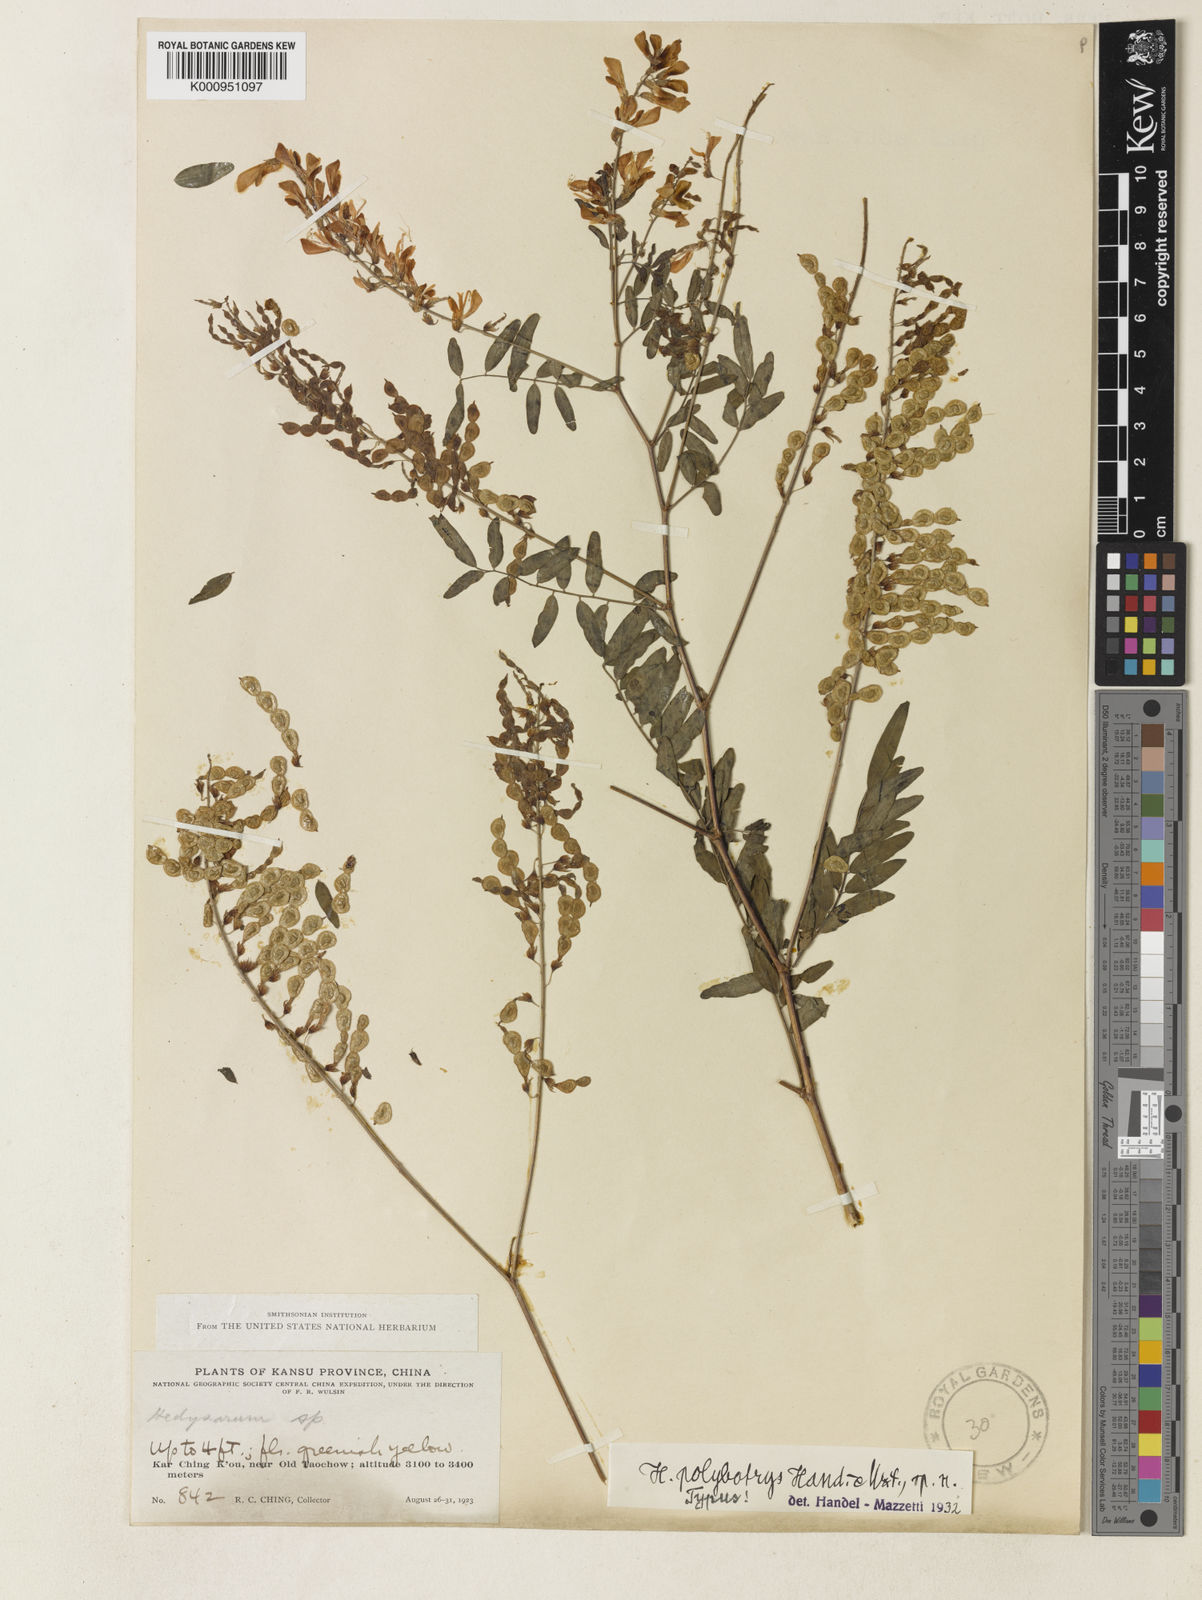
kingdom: Plantae
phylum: Tracheophyta
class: Magnoliopsida
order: Fabales
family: Fabaceae
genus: Hedysarum
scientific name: Hedysarum polybotrys
